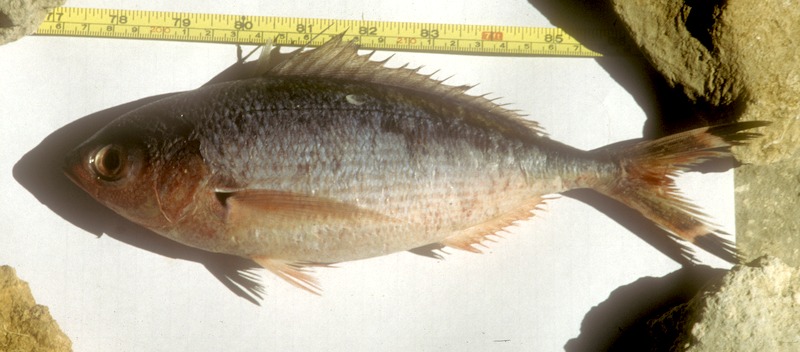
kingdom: Animalia
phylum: Chordata
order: Perciformes
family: Caesionidae
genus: Caesio
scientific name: Caesio lunaris
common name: Blue fusilier
